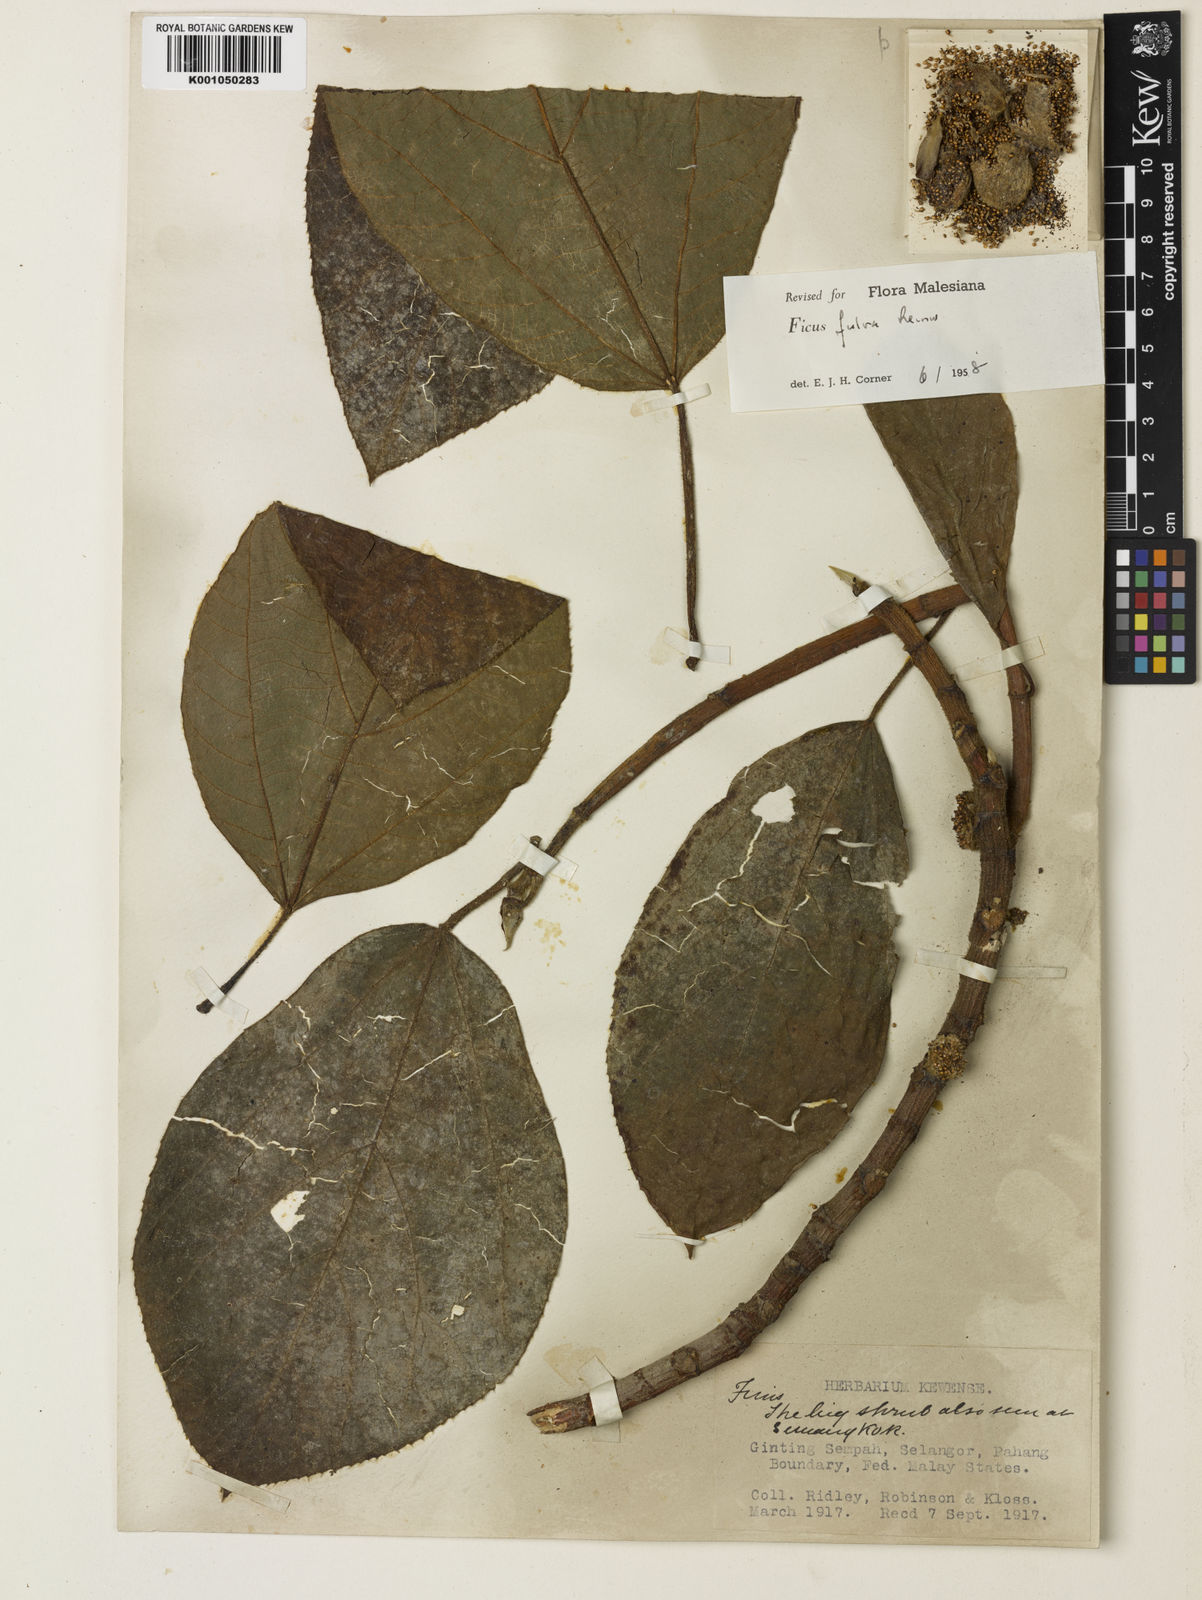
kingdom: Plantae
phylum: Tracheophyta
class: Magnoliopsida
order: Rosales
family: Moraceae
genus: Ficus
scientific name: Ficus fulva
